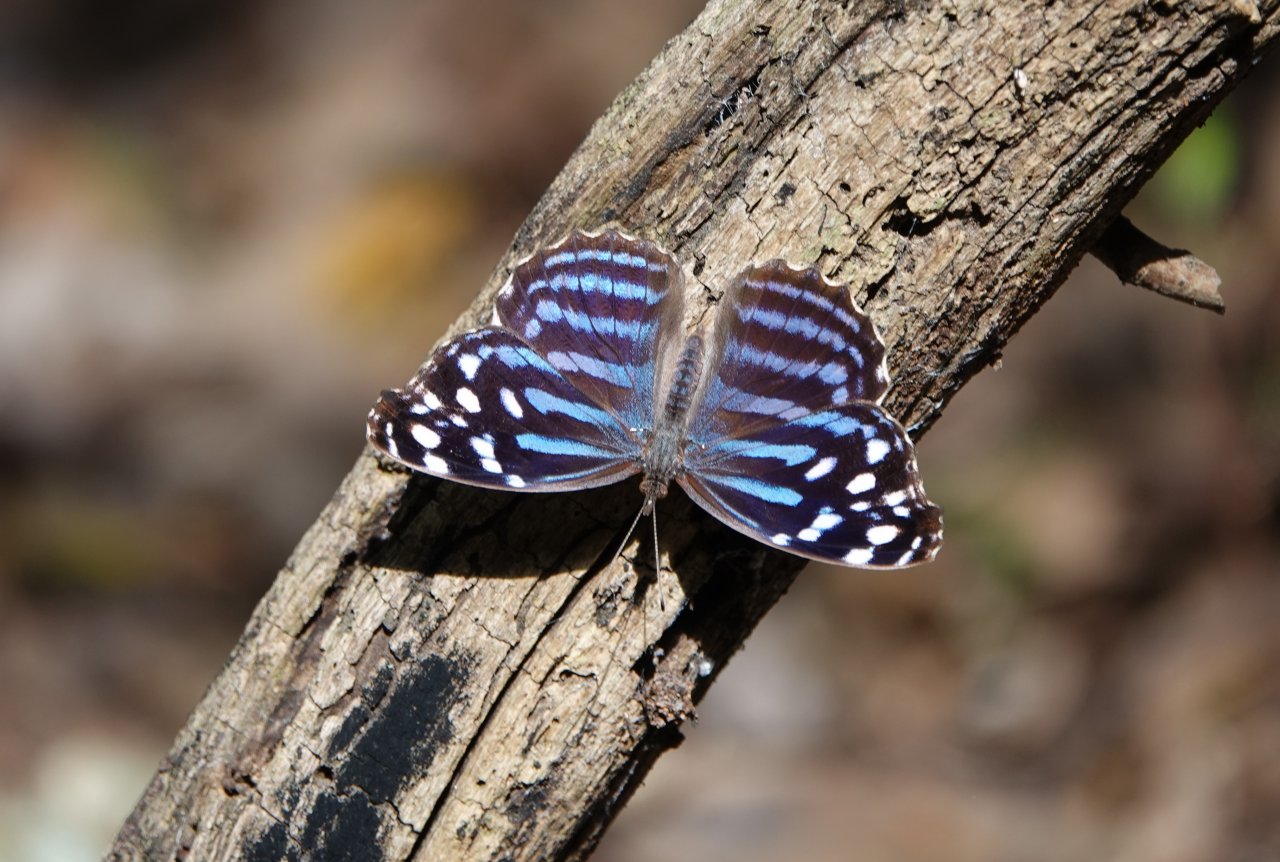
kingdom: Animalia
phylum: Arthropoda
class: Insecta
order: Lepidoptera
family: Nymphalidae
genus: Myscelia
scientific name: Myscelia ethusa
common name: Mexican Bluewing
